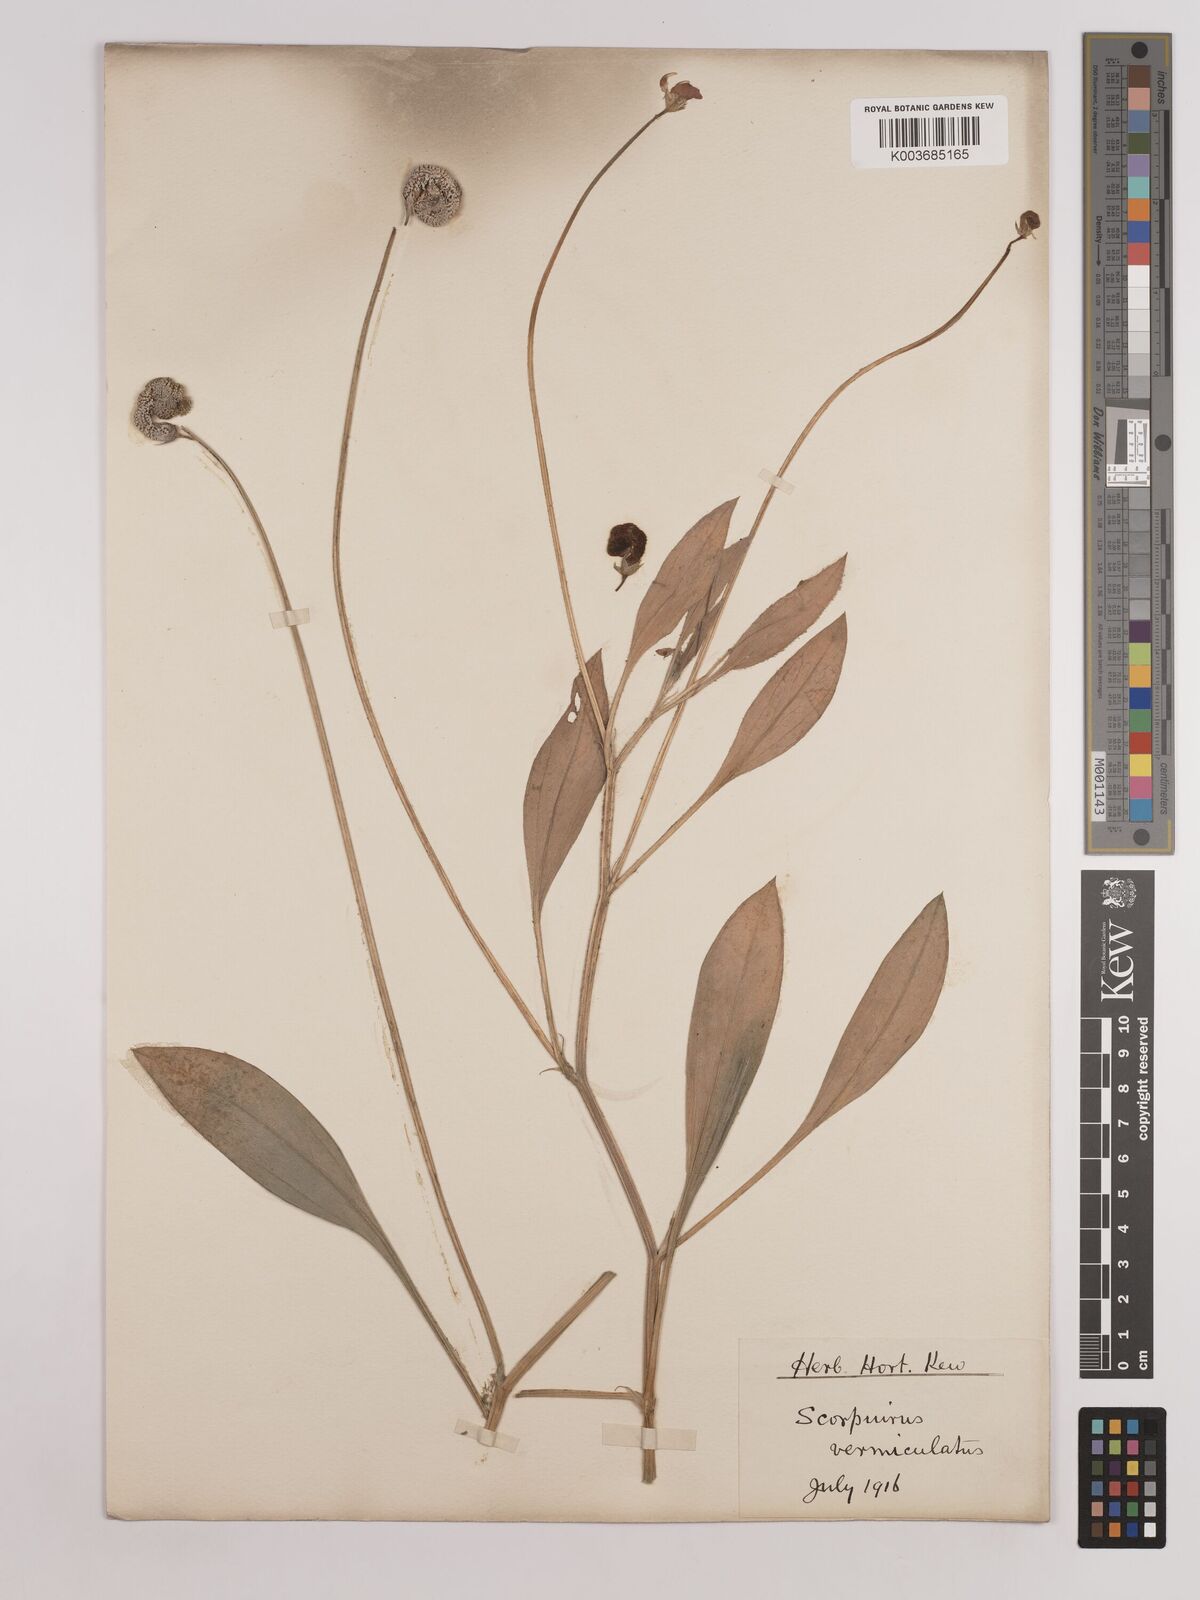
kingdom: Plantae
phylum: Tracheophyta
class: Magnoliopsida
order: Fabales
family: Fabaceae
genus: Scorpiurus
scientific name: Scorpiurus vermiculatus
